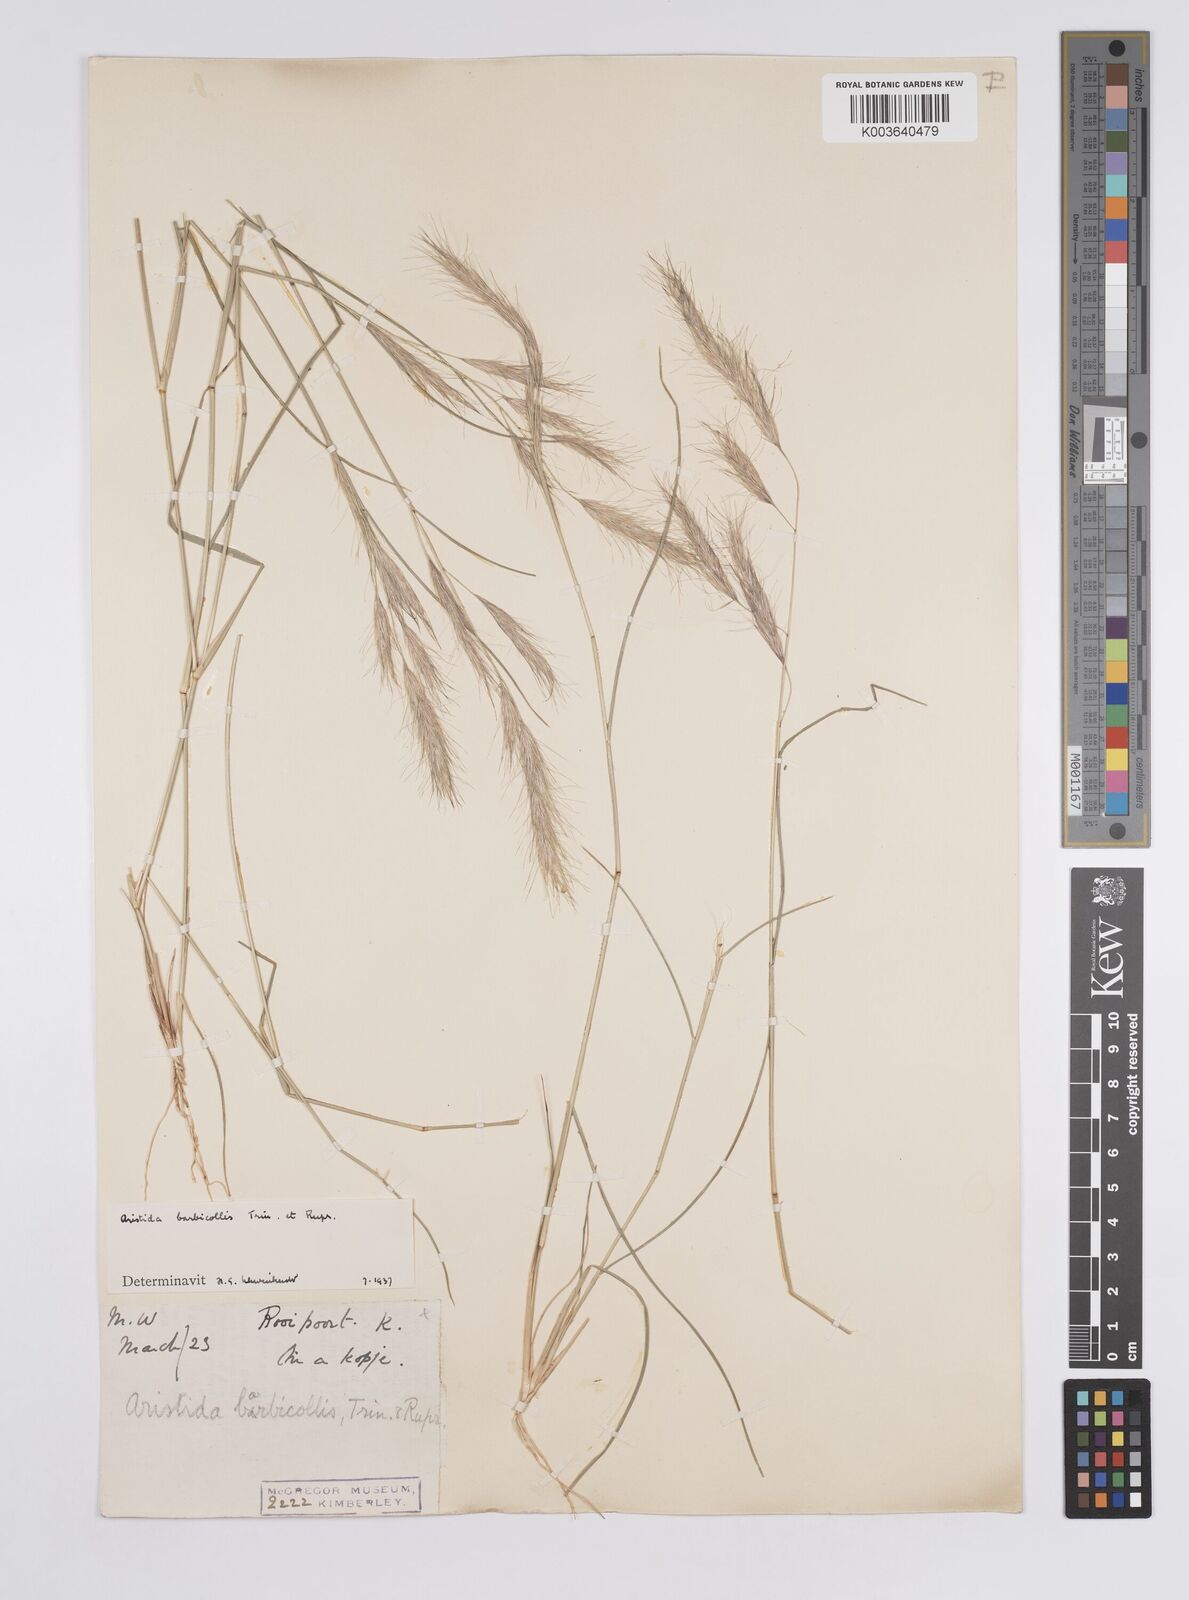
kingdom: Plantae
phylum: Tracheophyta
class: Liliopsida
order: Poales
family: Poaceae
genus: Aristida
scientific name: Aristida barbicollis
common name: Spreading prickle grass
